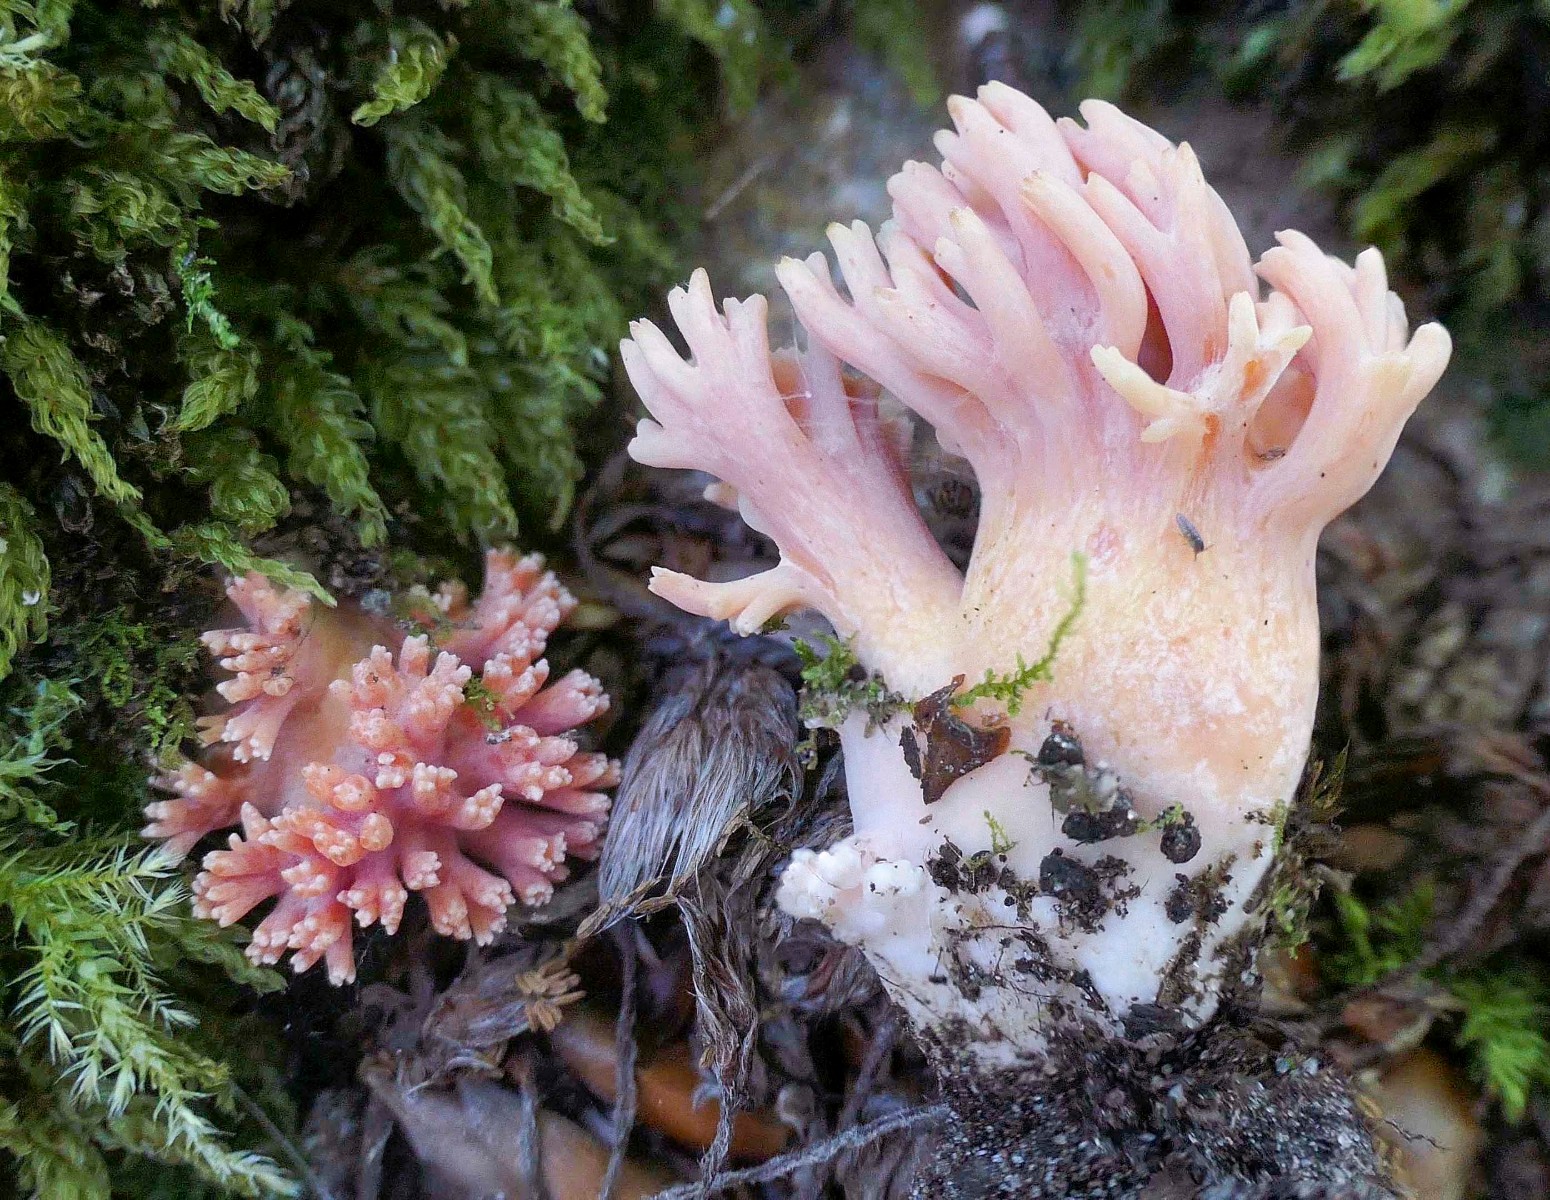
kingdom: Fungi
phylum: Basidiomycota
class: Agaricomycetes
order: Gomphales
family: Gomphaceae
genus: Ramaria
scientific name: Ramaria fagetorum
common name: abrikos-koralsvamp
